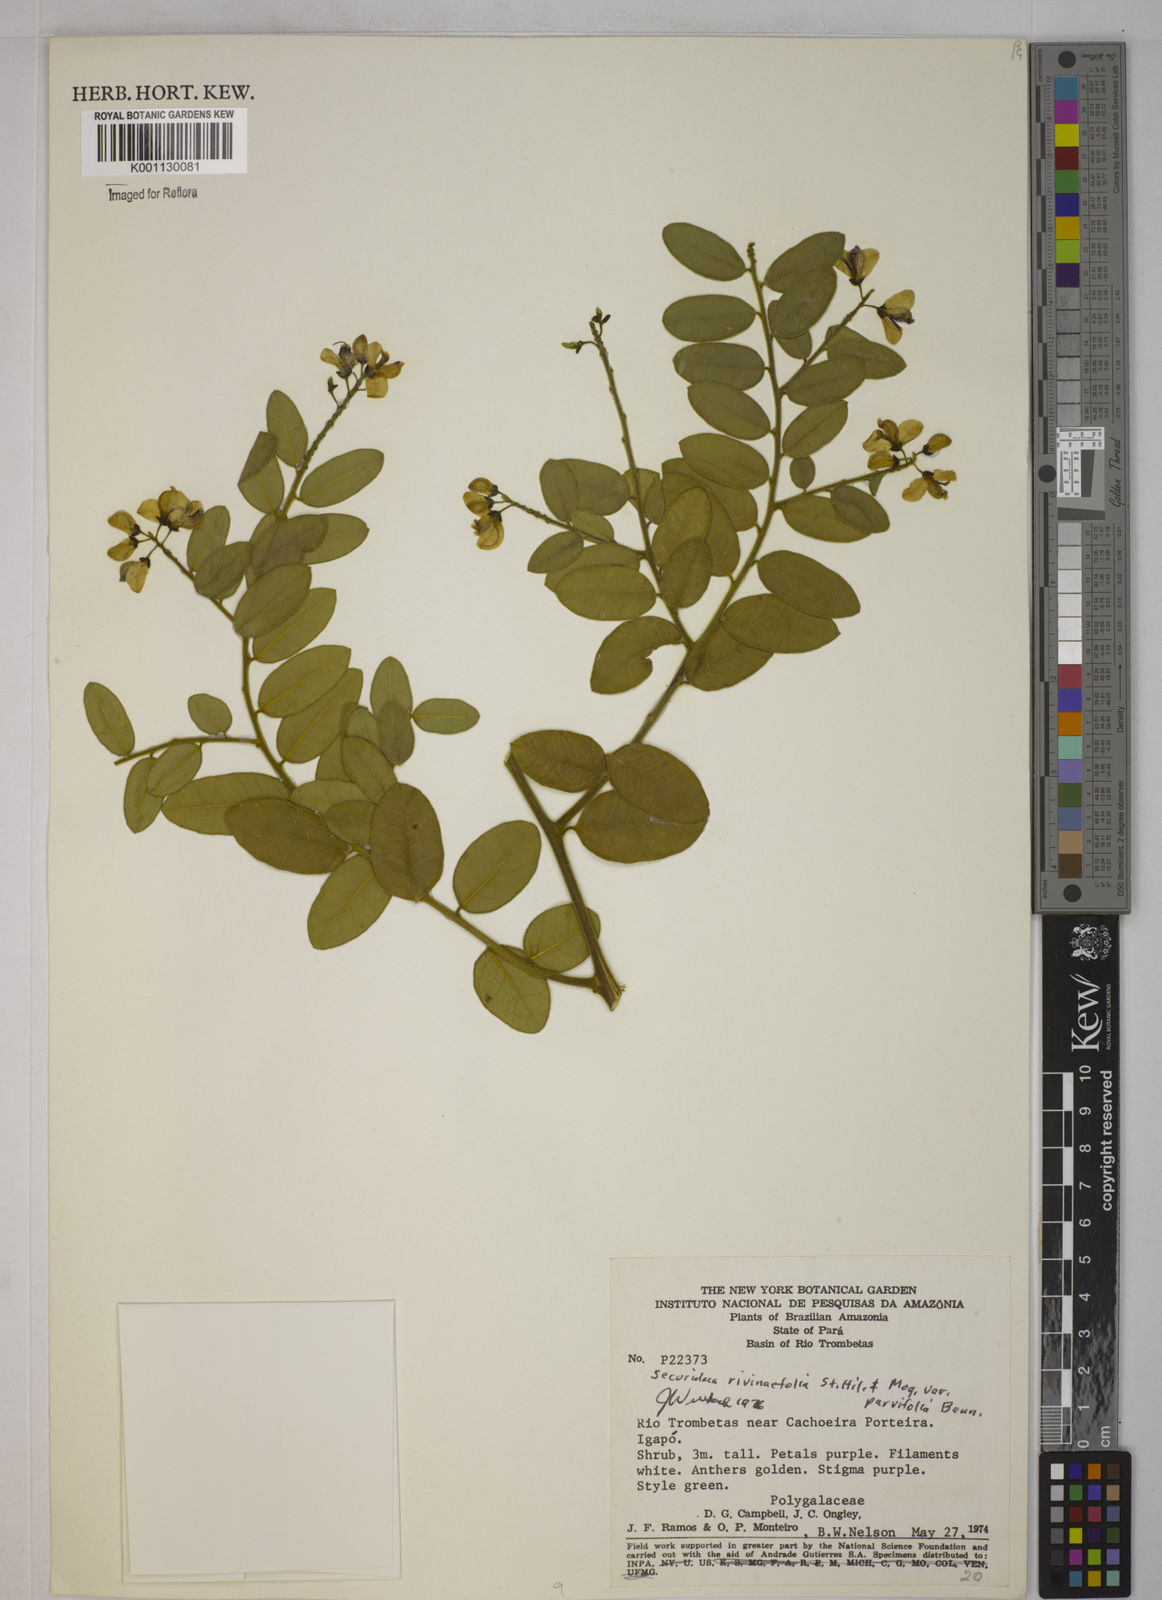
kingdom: Plantae
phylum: Tracheophyta
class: Magnoliopsida
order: Fabales
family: Polygalaceae
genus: Securidaca
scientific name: Securidaca rivinifolia
